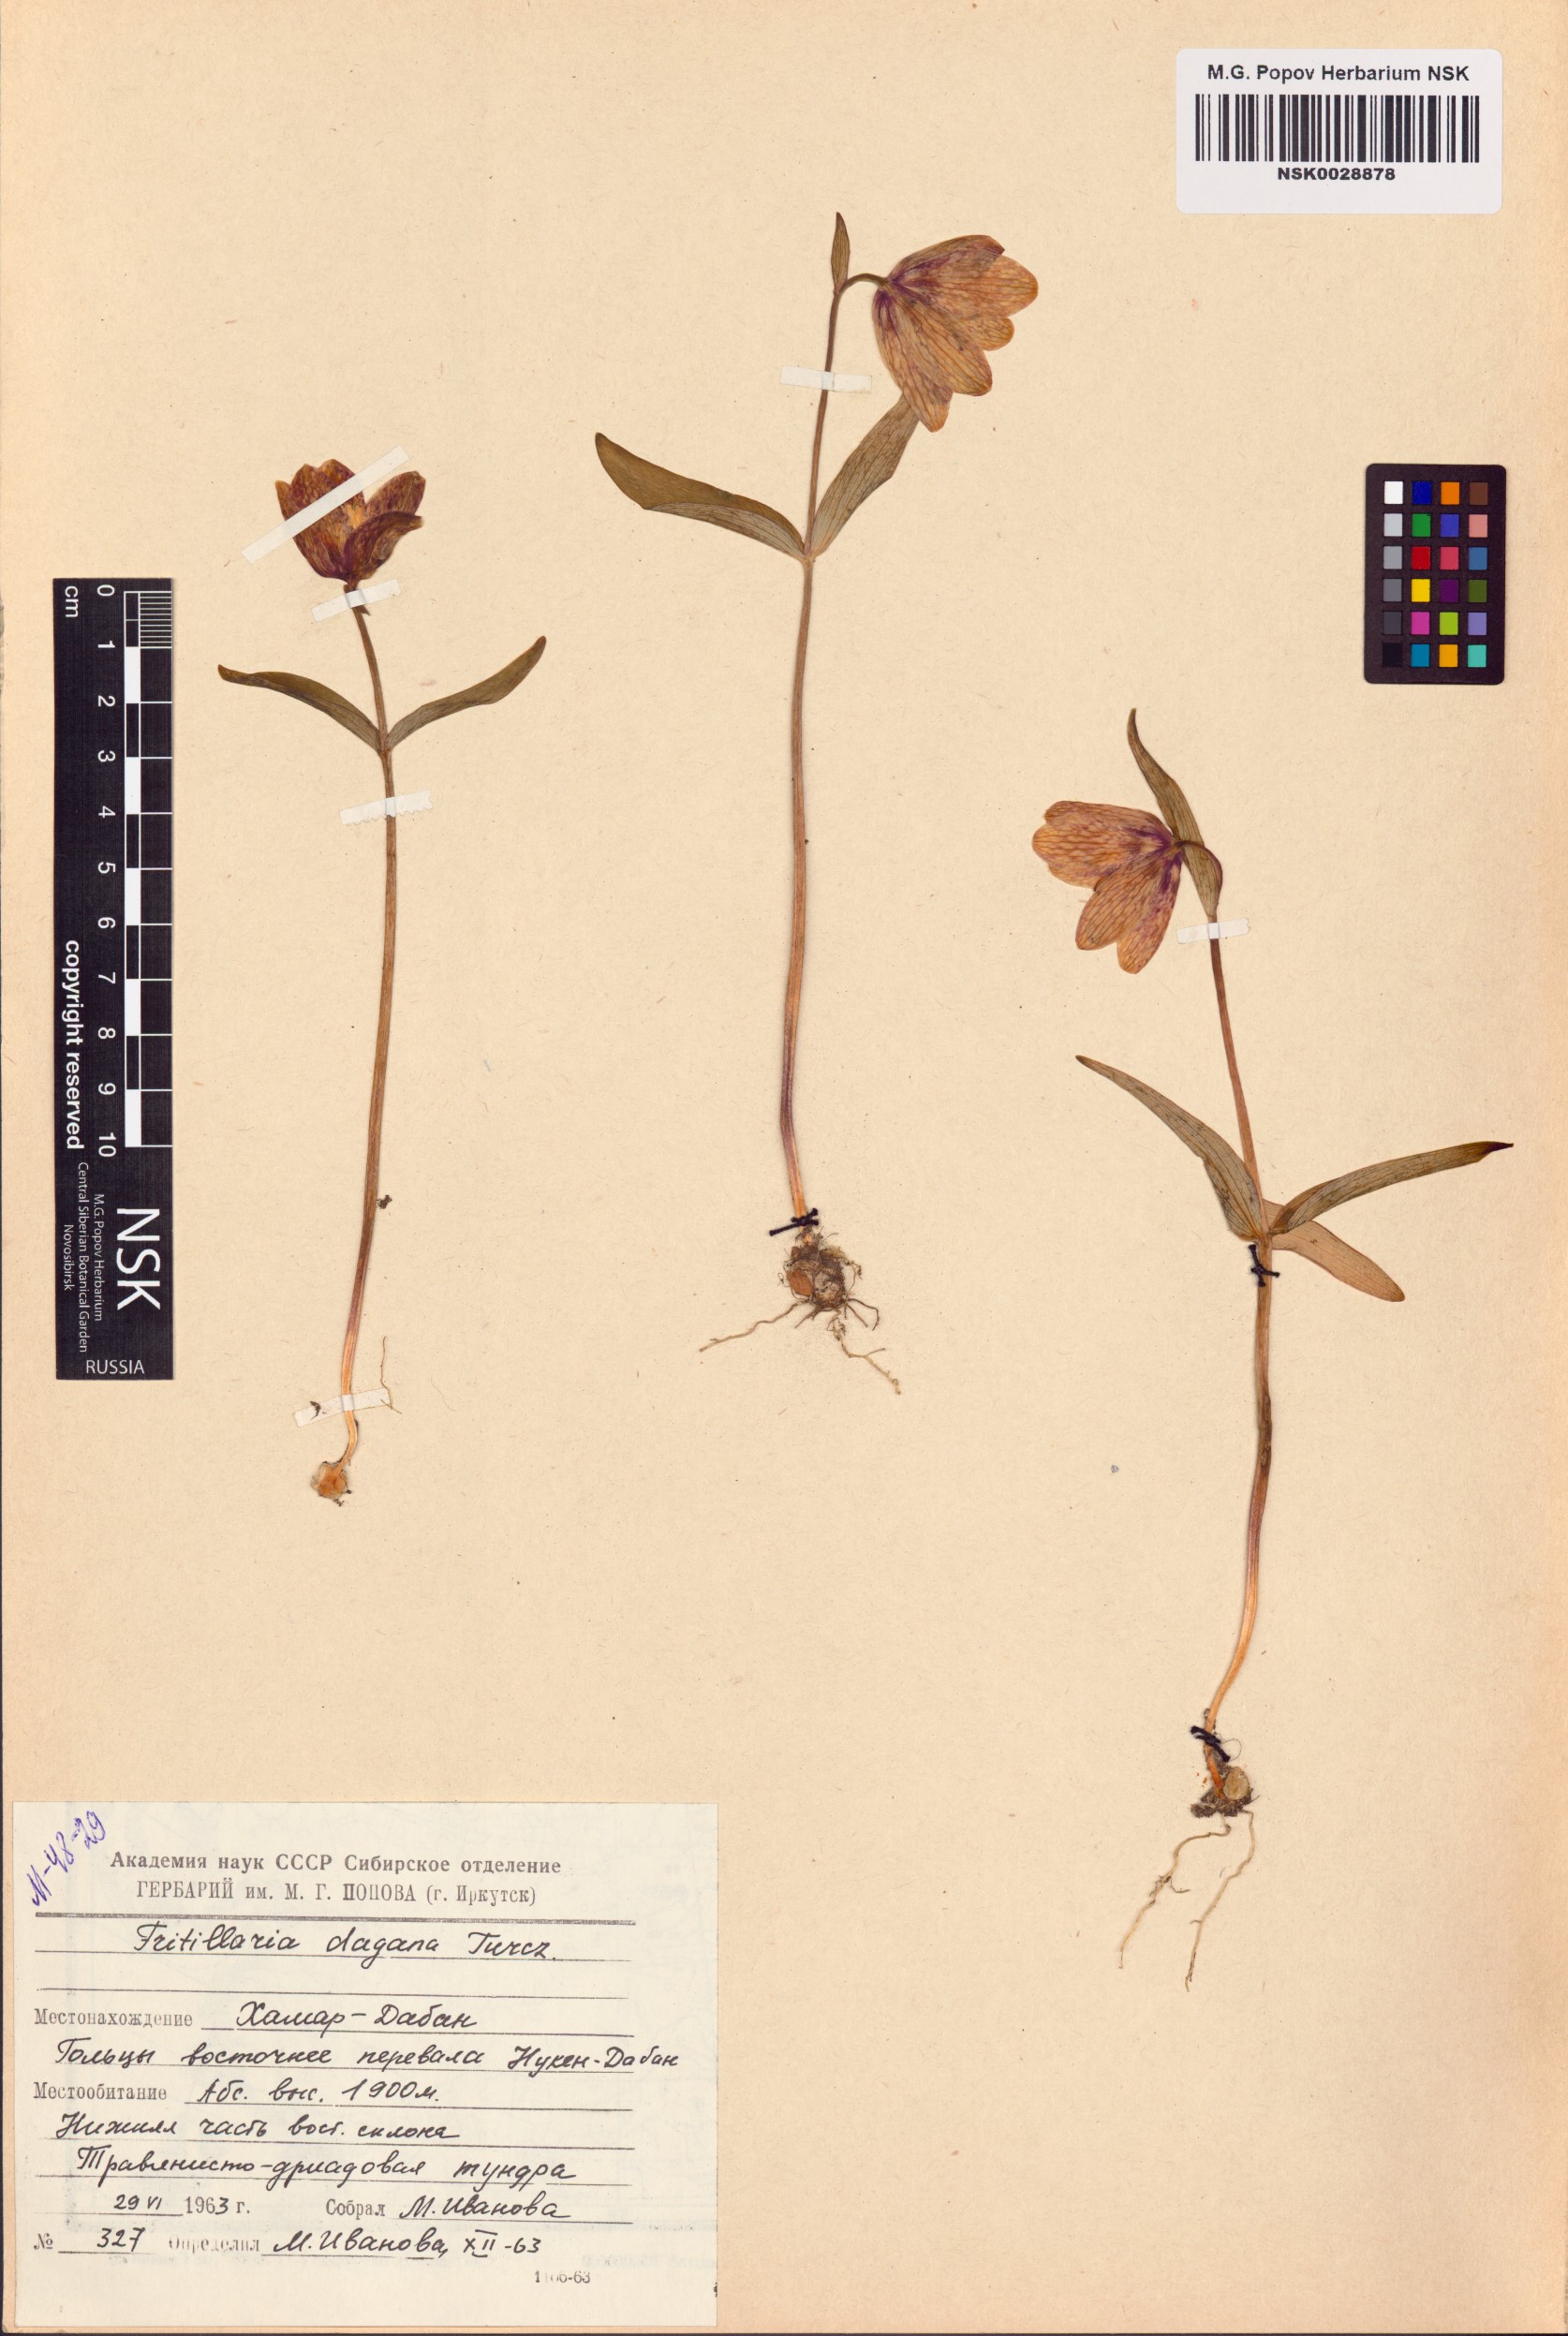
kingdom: Plantae
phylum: Tracheophyta
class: Liliopsida
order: Liliales
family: Liliaceae
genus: Fritillaria
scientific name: Fritillaria dagana
